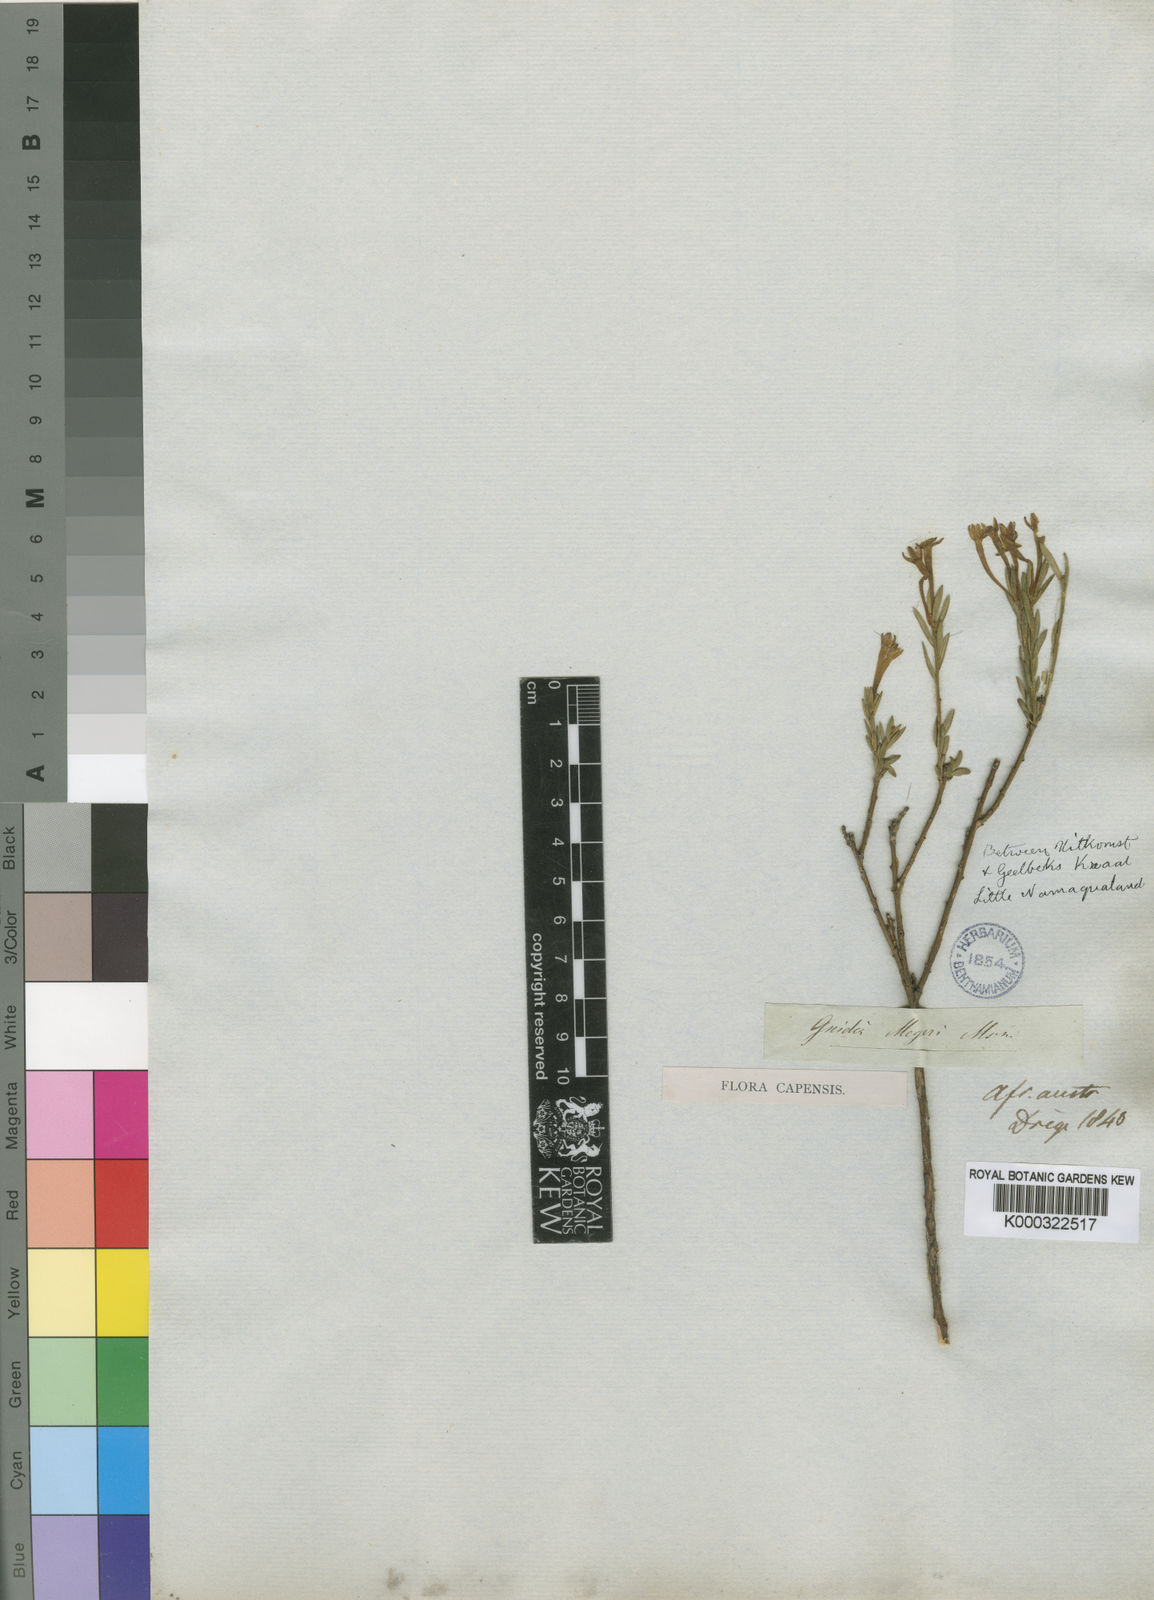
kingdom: Plantae
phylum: Tracheophyta
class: Magnoliopsida
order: Malvales
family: Thymelaeaceae
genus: Gnidia
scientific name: Gnidia meyeri
